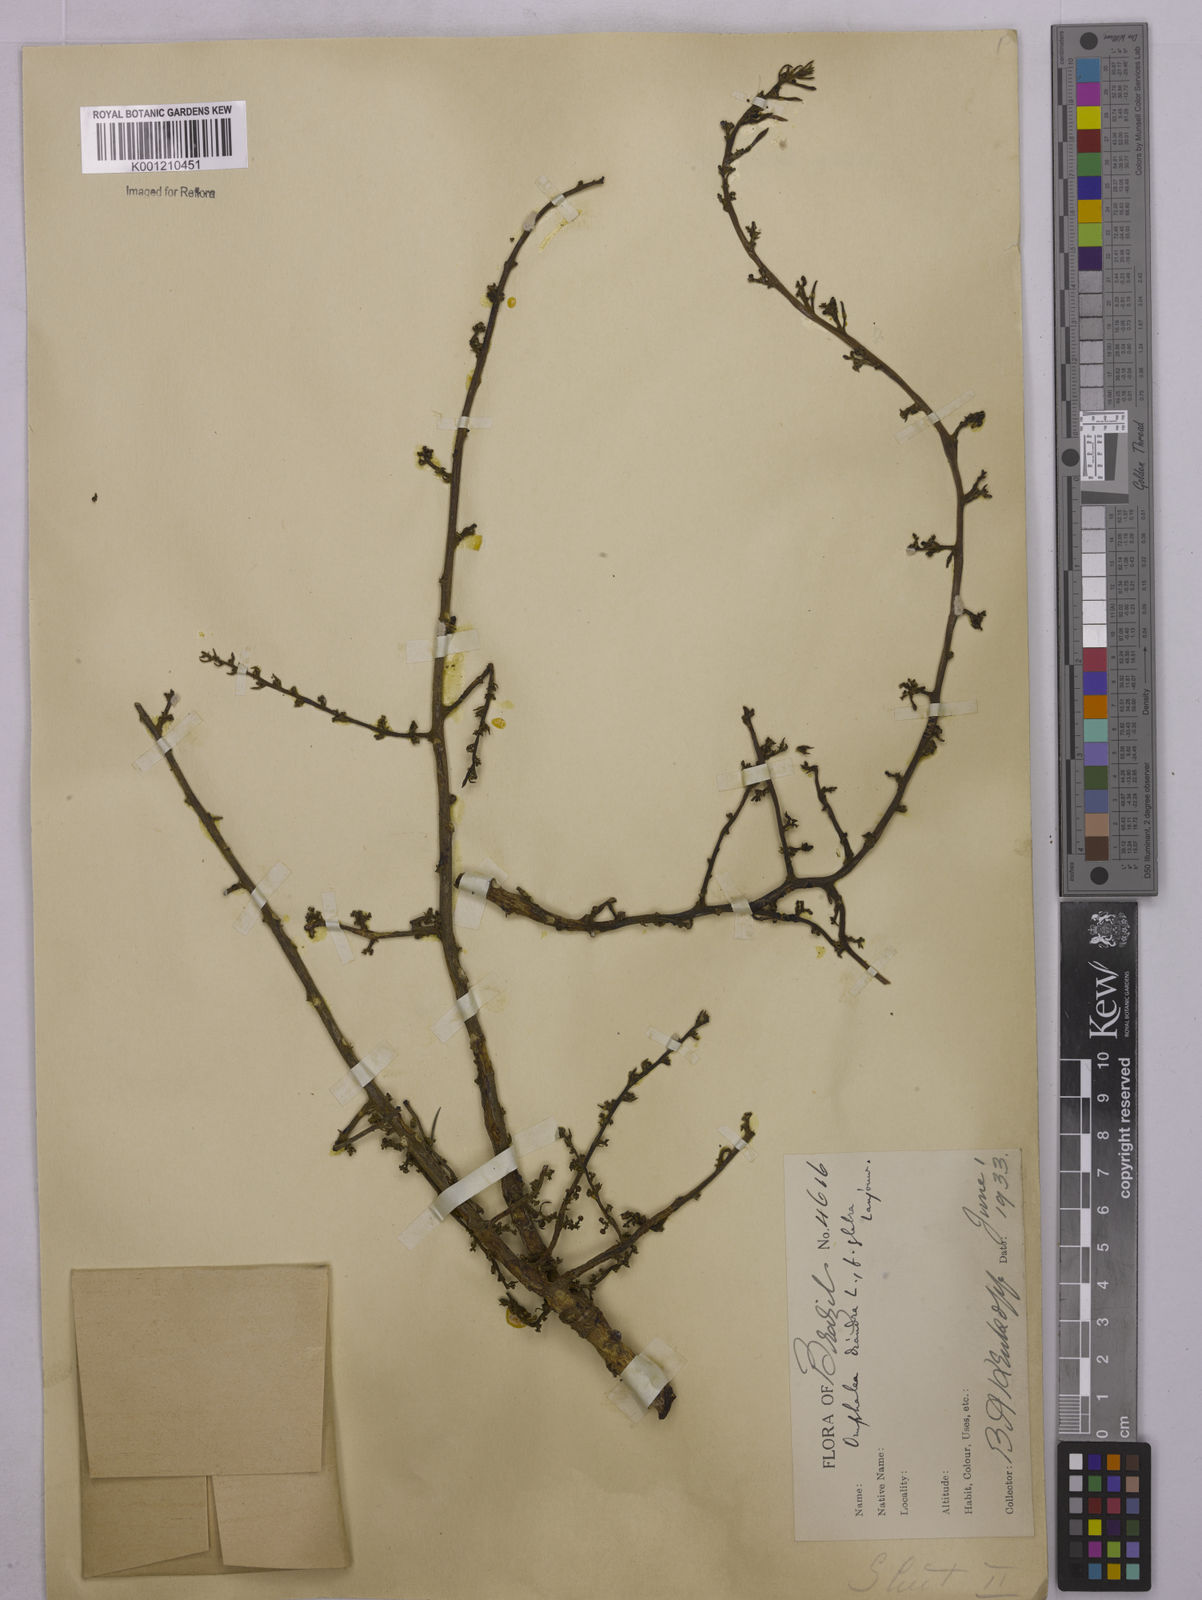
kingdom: Plantae
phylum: Tracheophyta
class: Magnoliopsida
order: Malpighiales
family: Euphorbiaceae
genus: Omphalea
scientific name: Omphalea diandra
